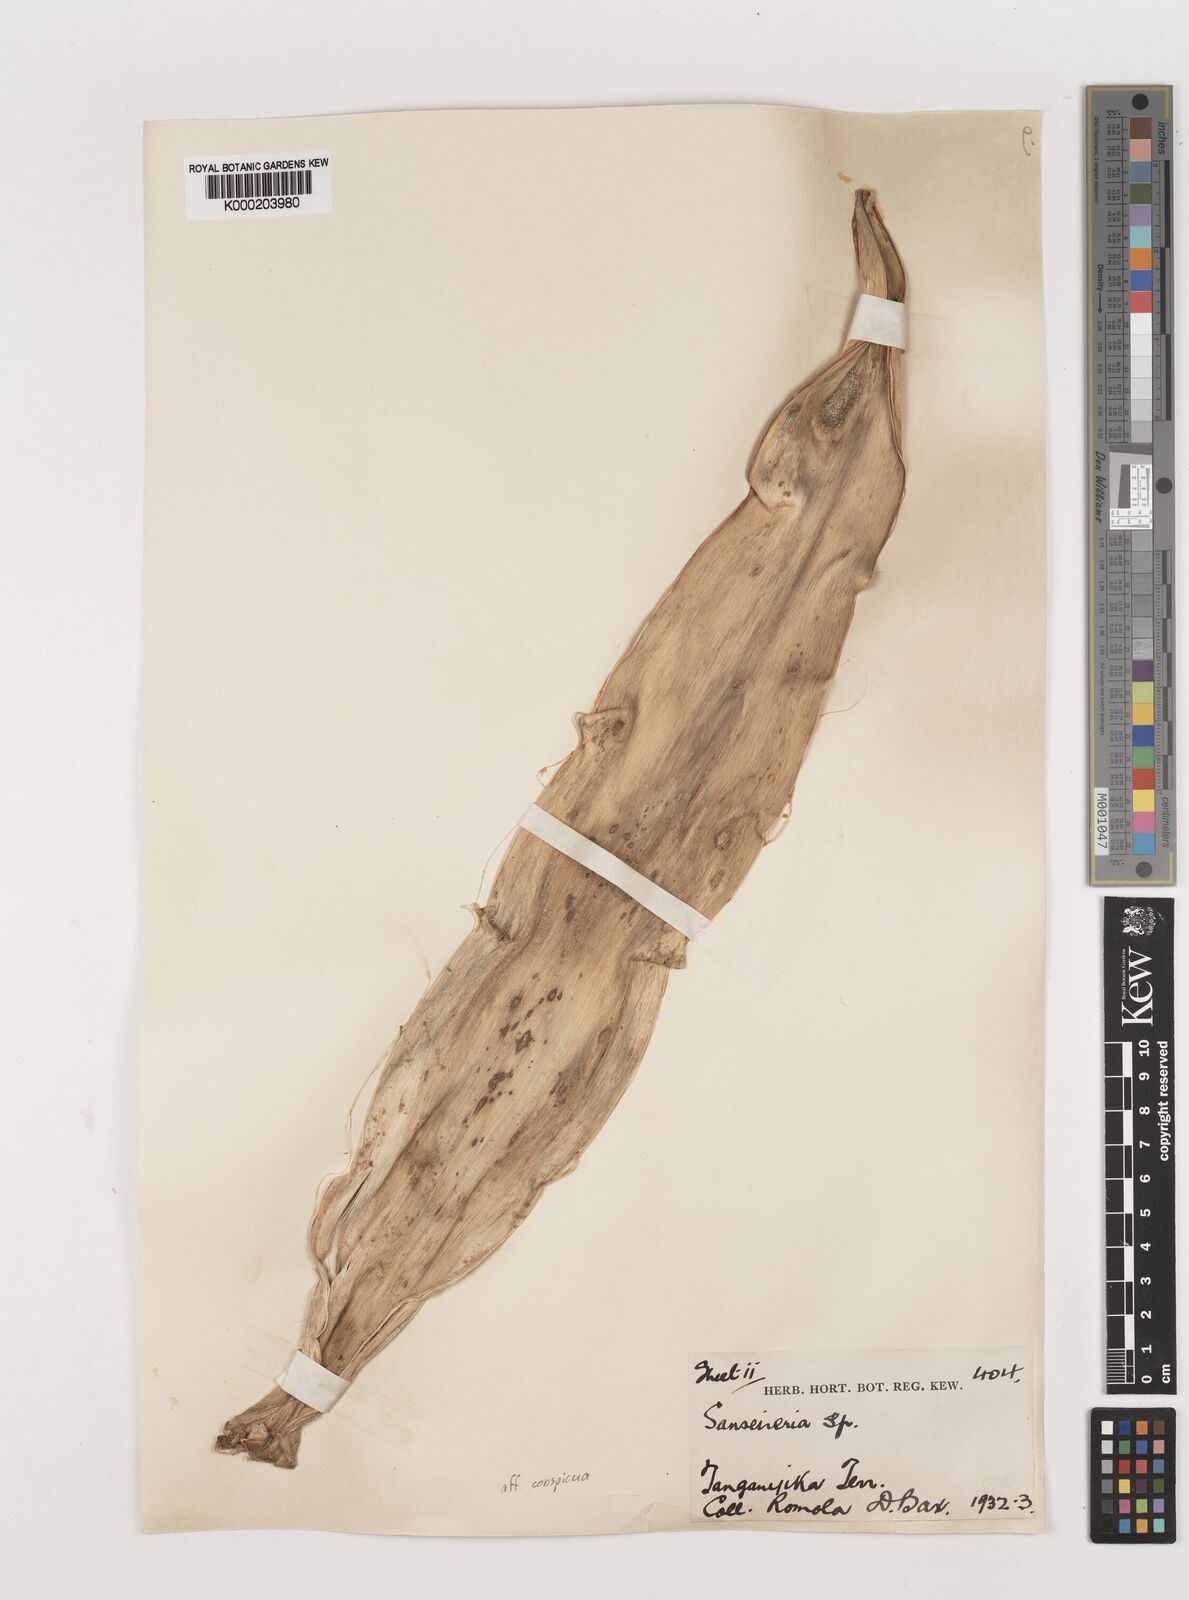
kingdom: Plantae
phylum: Tracheophyta
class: Liliopsida
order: Asparagales
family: Asparagaceae
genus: Dracaena
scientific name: Dracaena conspicua
